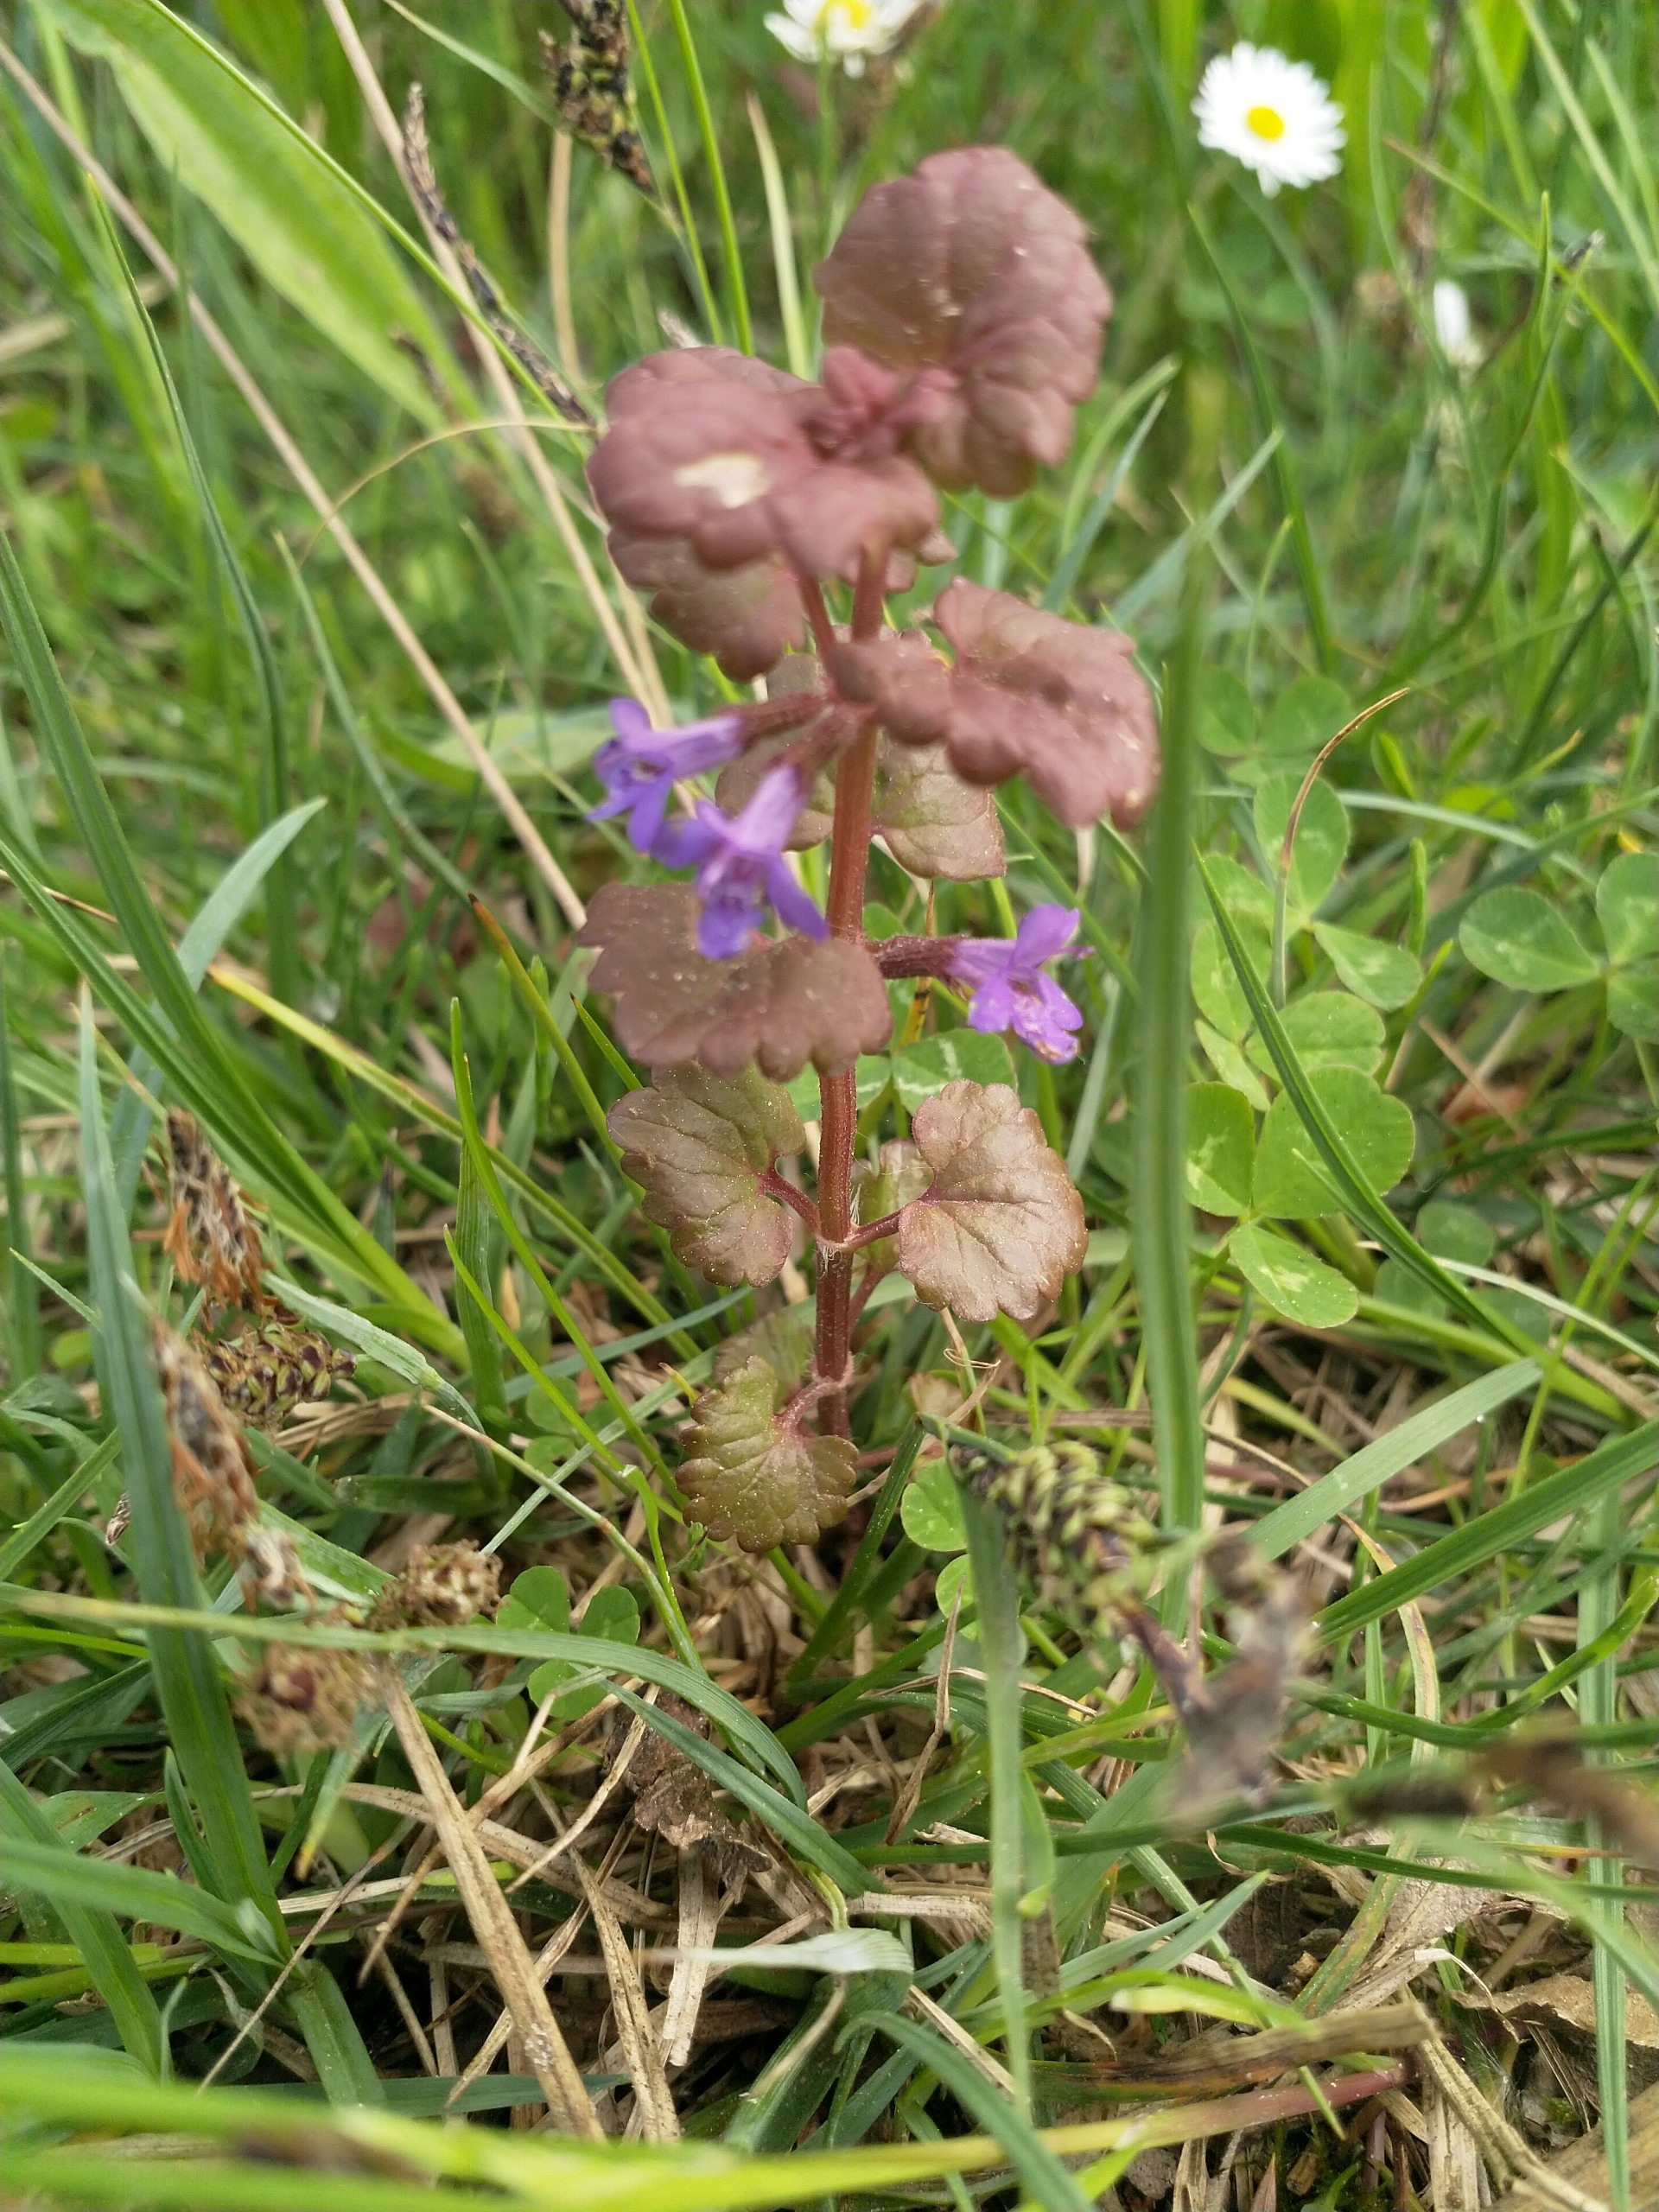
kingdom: Plantae
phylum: Tracheophyta
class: Magnoliopsida
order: Lamiales
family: Lamiaceae
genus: Glechoma
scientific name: Glechoma hederacea
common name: Korsknap
